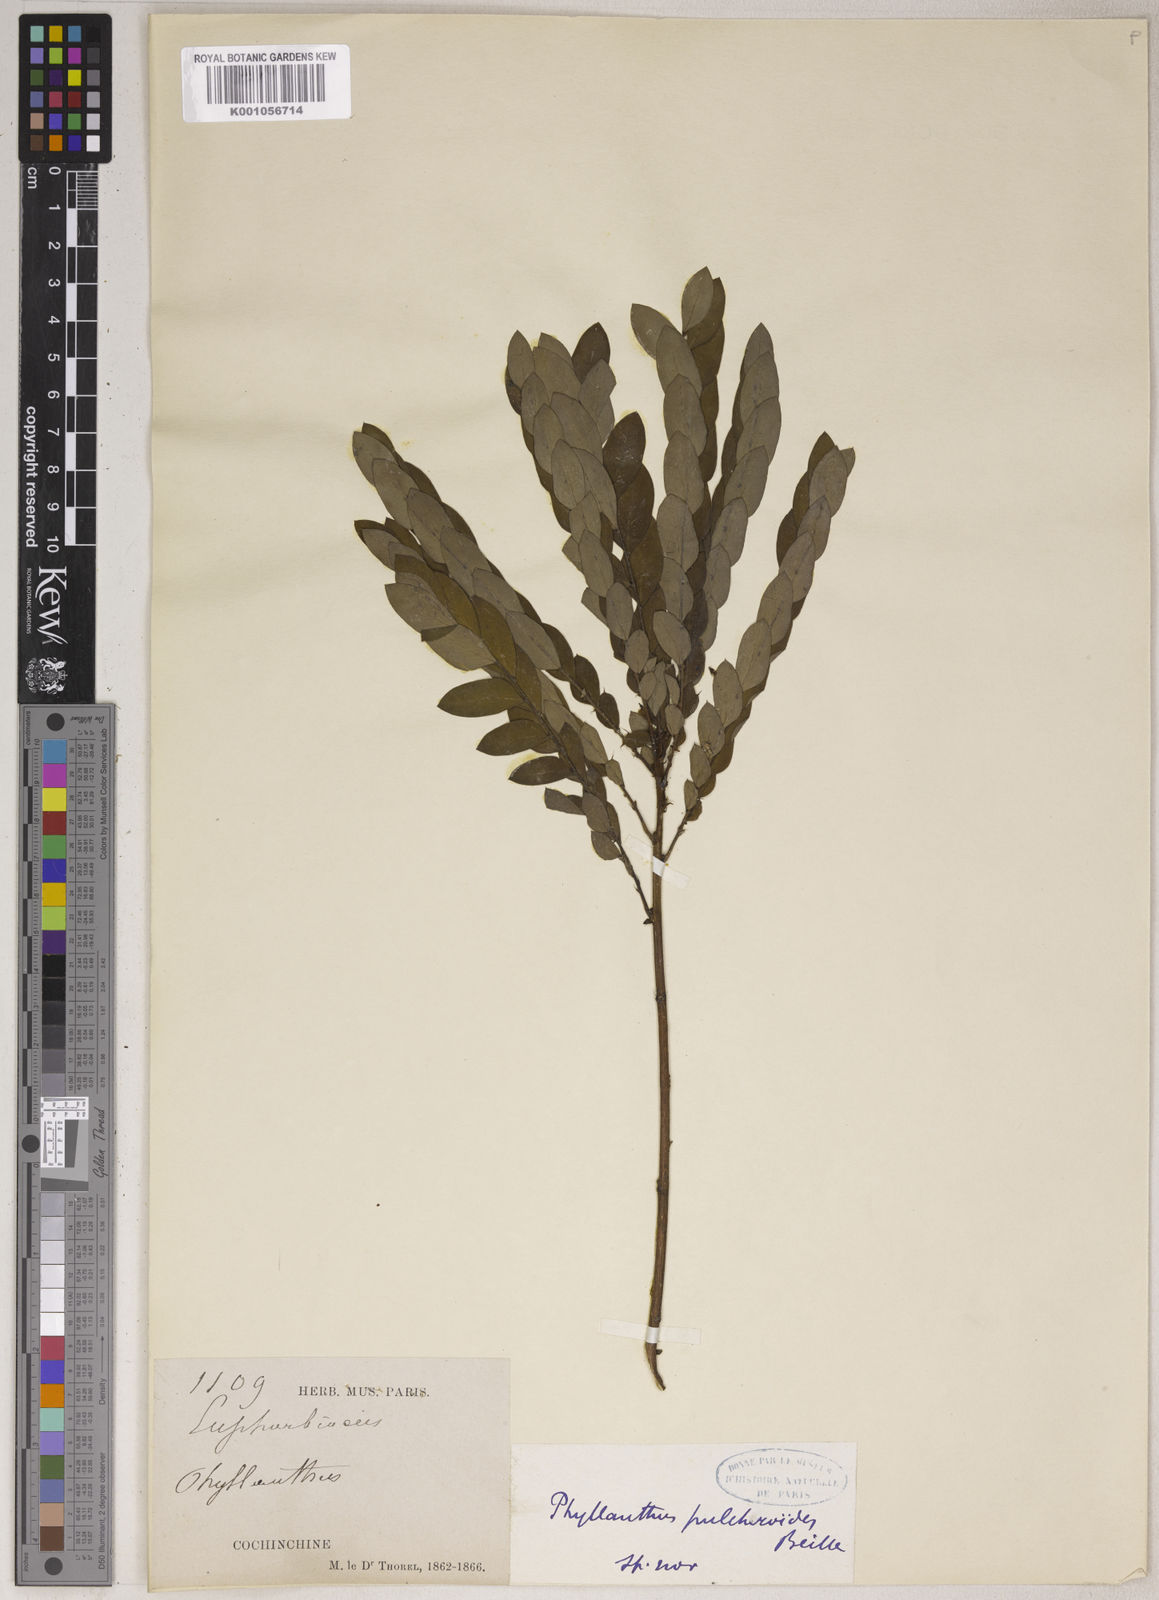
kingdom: Plantae
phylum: Tracheophyta
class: Magnoliopsida
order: Malpighiales
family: Phyllanthaceae
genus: Phyllanthus
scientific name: Phyllanthus pulchroides
